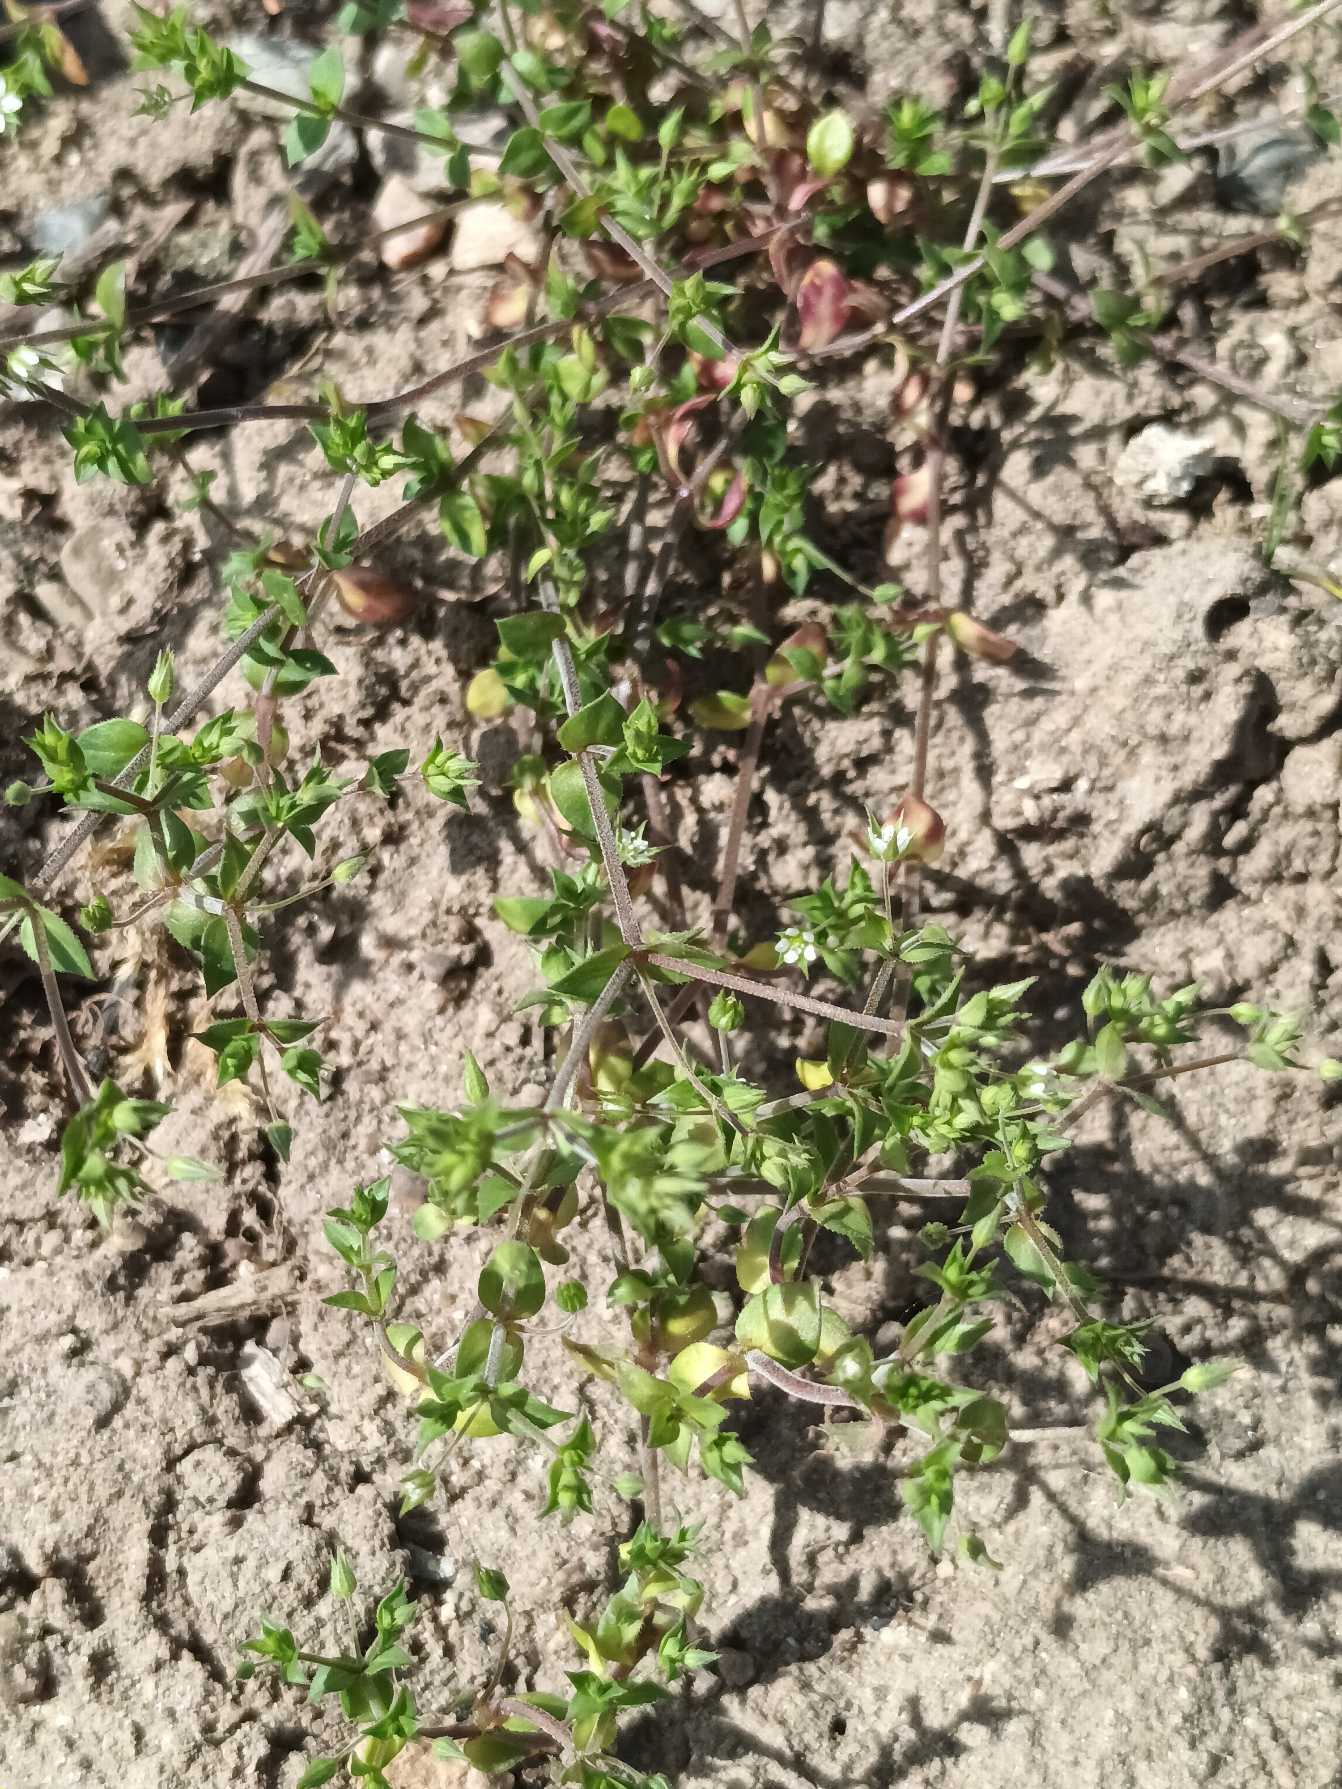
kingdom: Plantae
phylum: Tracheophyta
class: Magnoliopsida
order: Caryophyllales
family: Caryophyllaceae
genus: Arenaria
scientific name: Arenaria serpyllifolia
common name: Almindelig markarve
